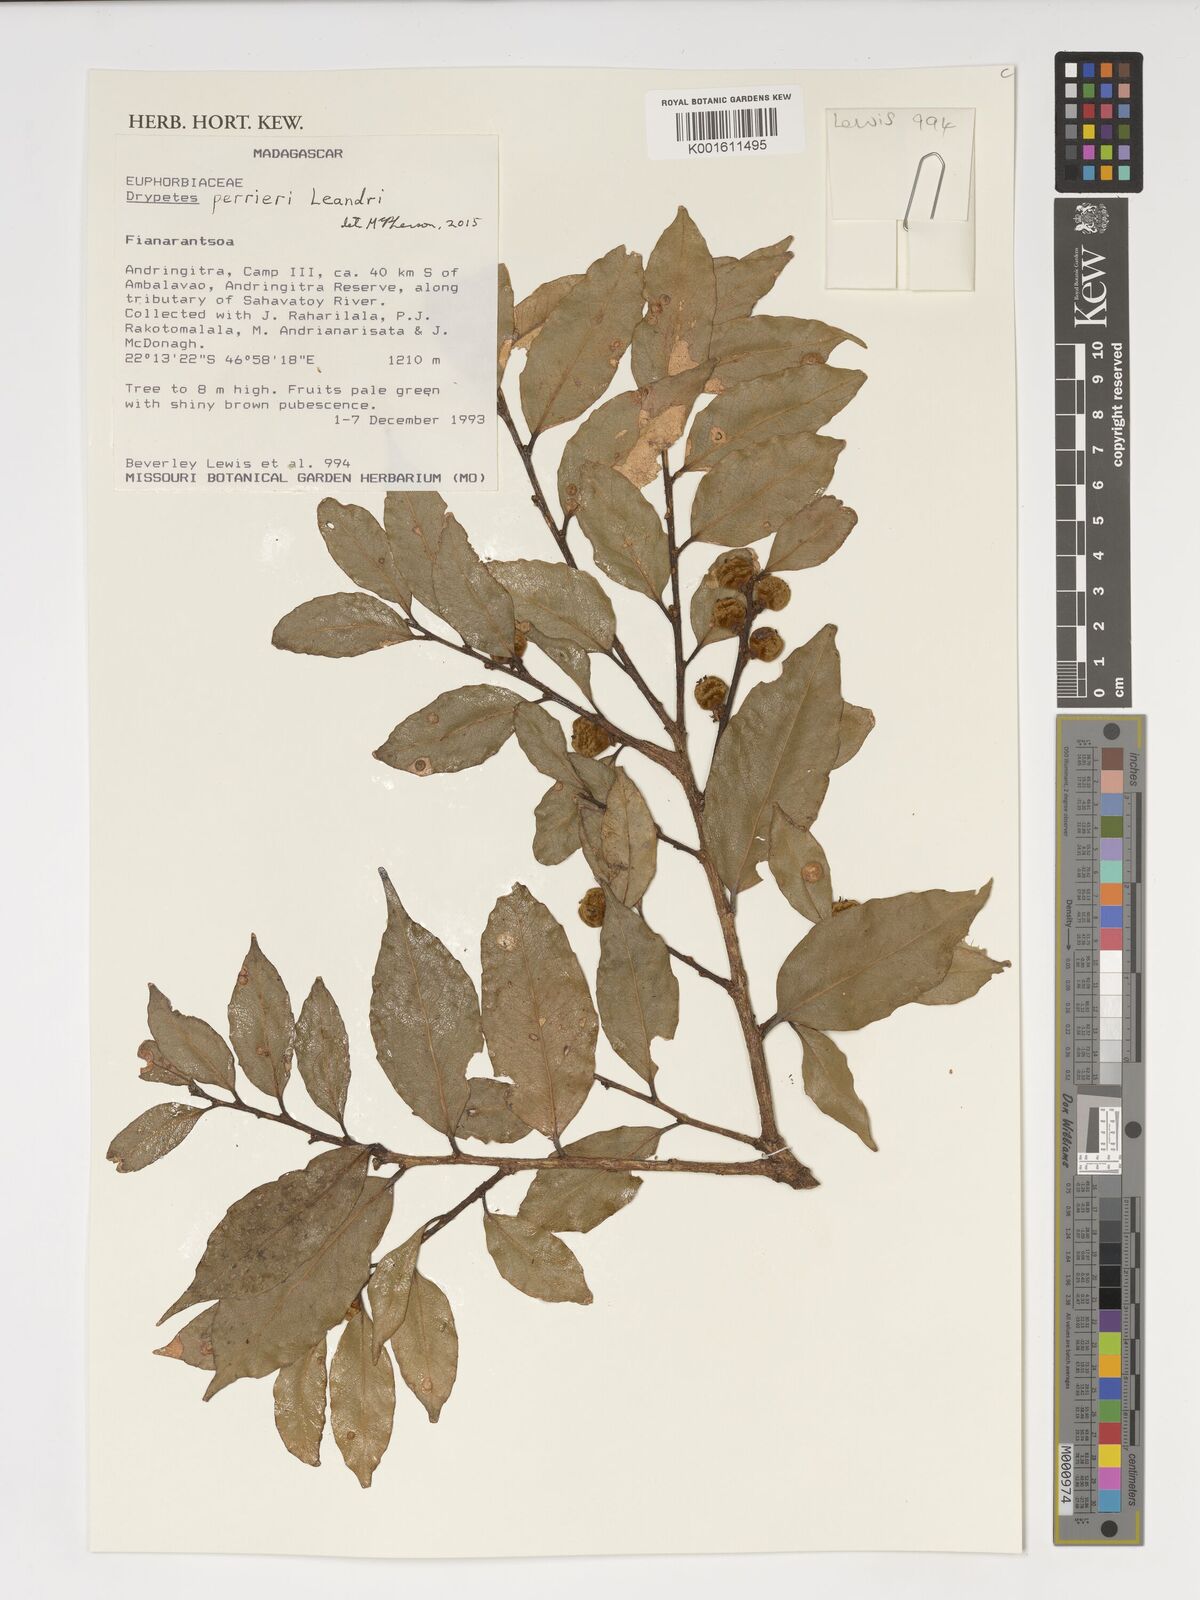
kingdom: Plantae
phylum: Tracheophyta
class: Magnoliopsida
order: Malpighiales
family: Putranjivaceae
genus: Drypetes
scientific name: Drypetes perrieri
